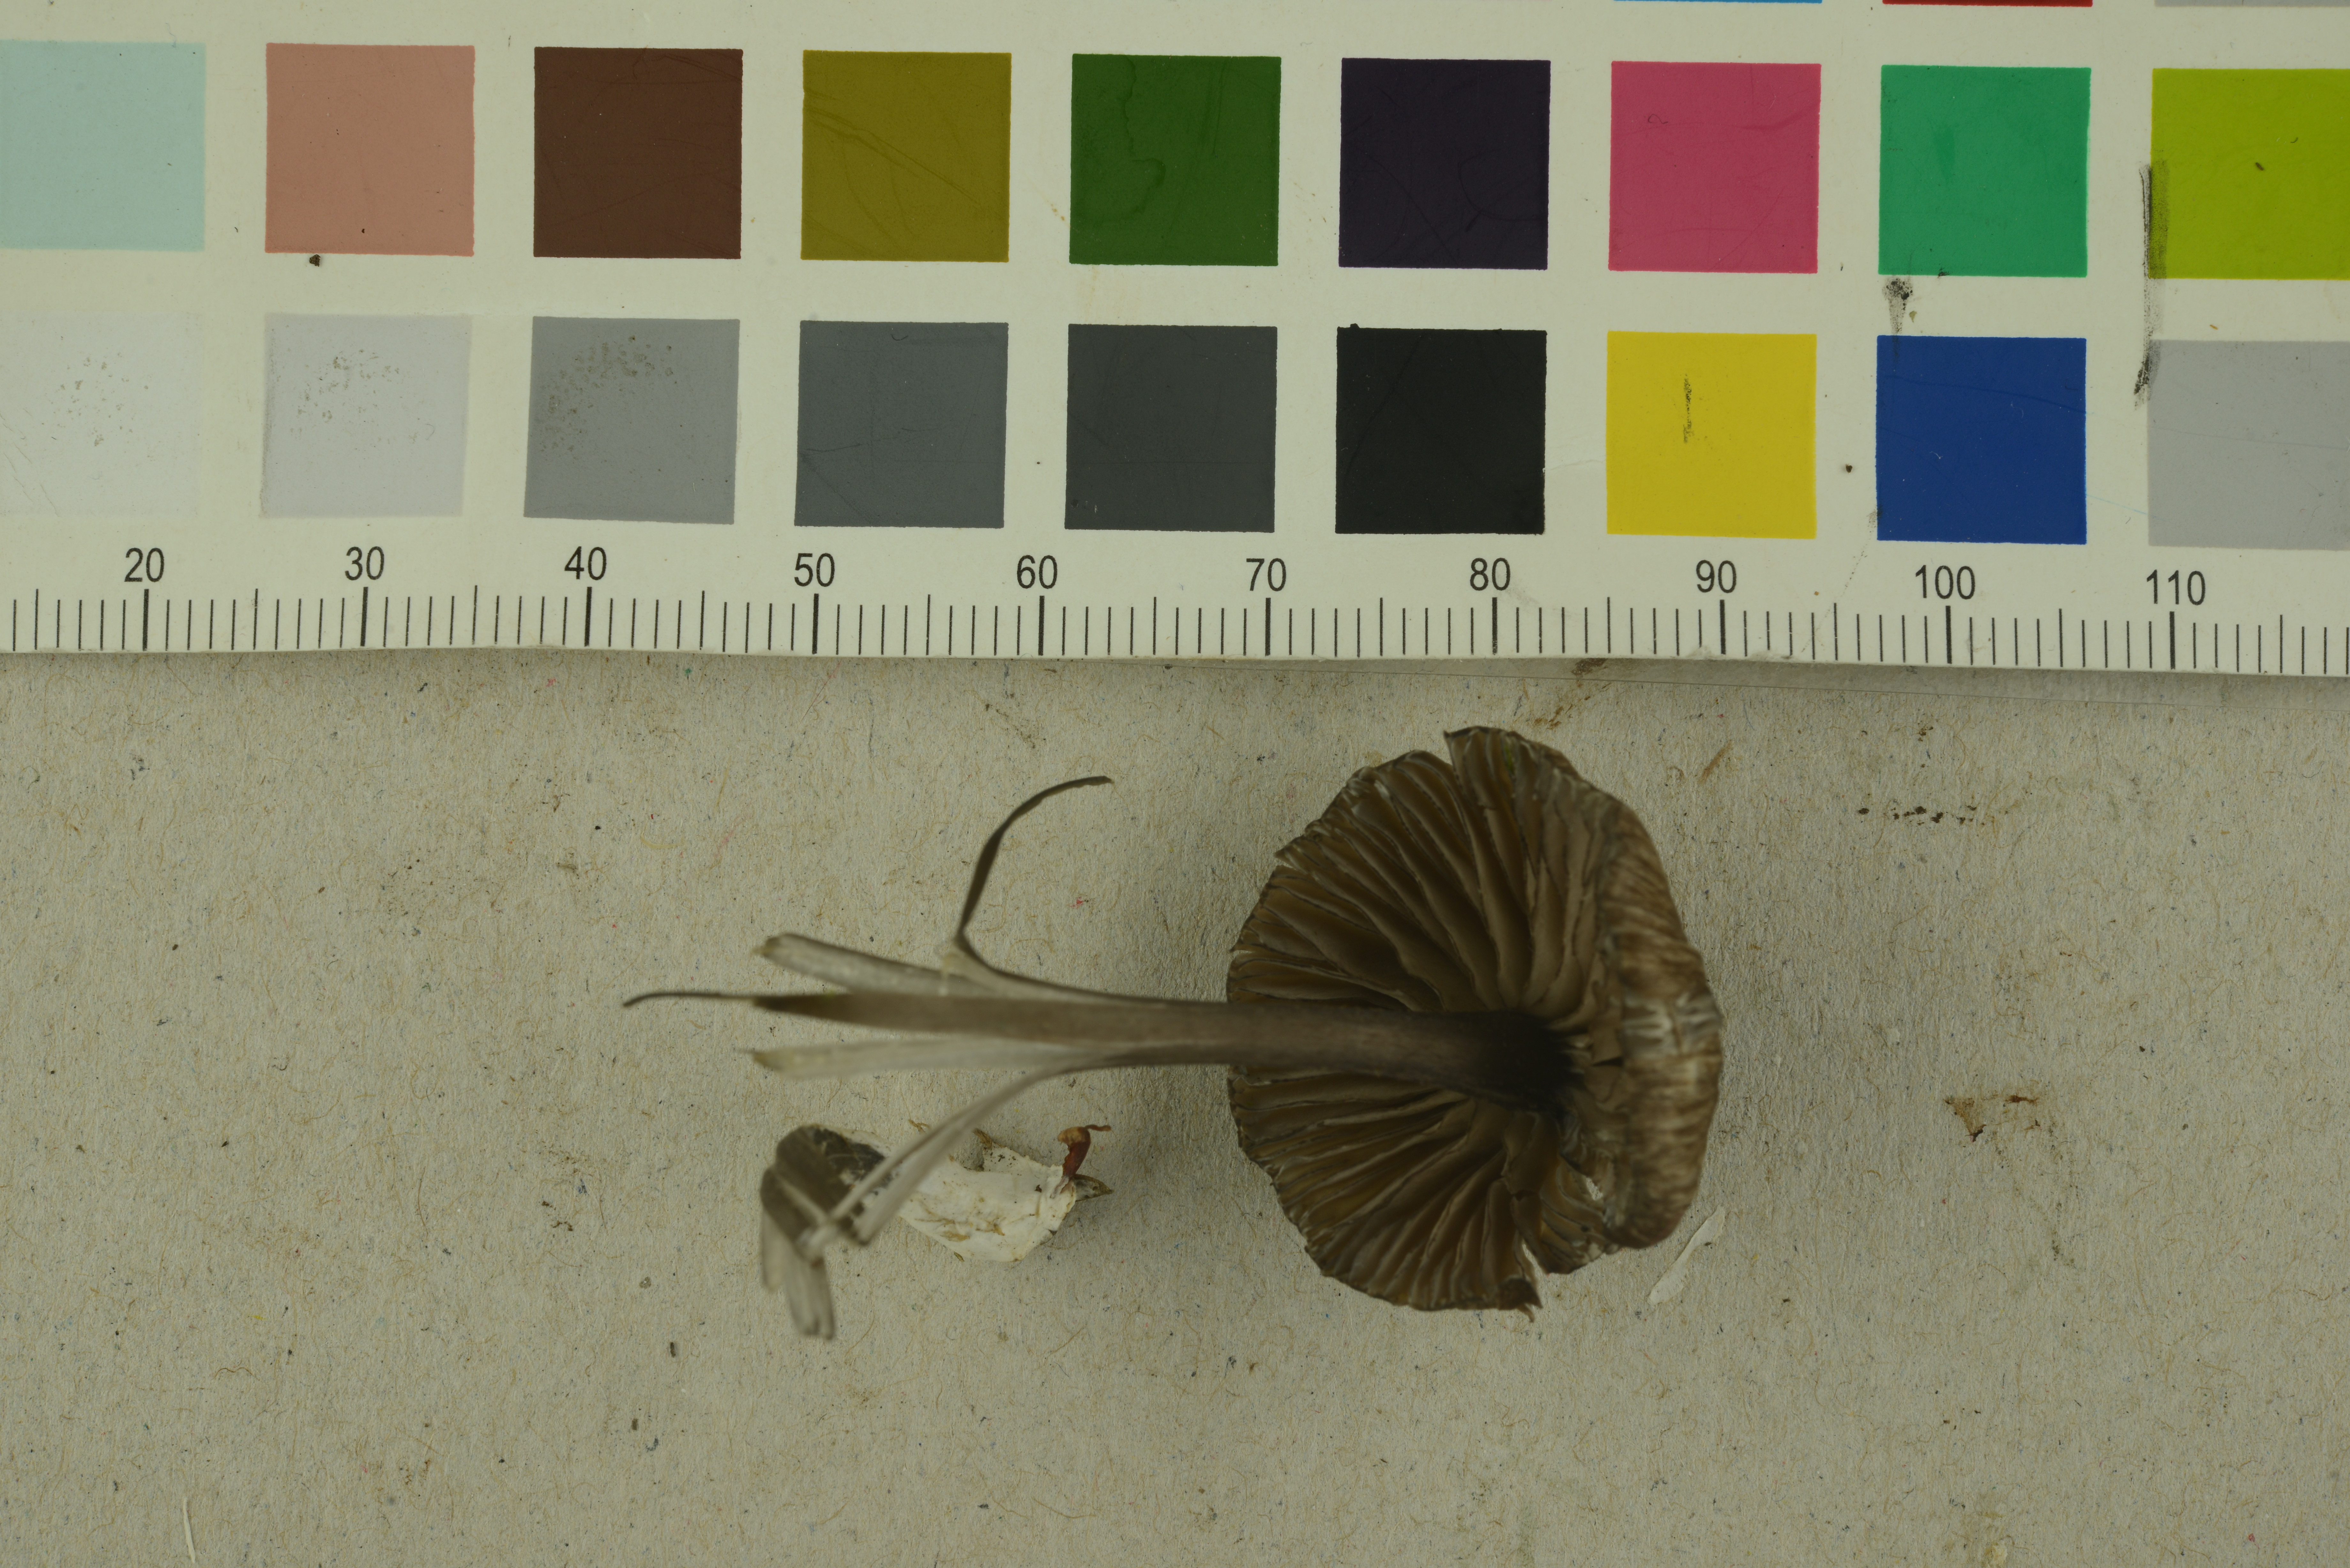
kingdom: Fungi
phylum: Basidiomycota
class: Agaricomycetes
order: Agaricales
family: Entolomataceae
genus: Entoloma
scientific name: Entoloma linkii
